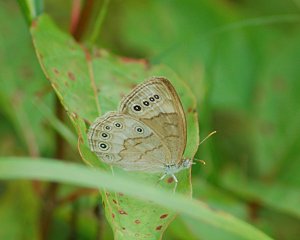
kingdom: Animalia
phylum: Arthropoda
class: Insecta
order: Lepidoptera
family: Nymphalidae
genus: Lethe
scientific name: Lethe eurydice
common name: Eyed Brown
